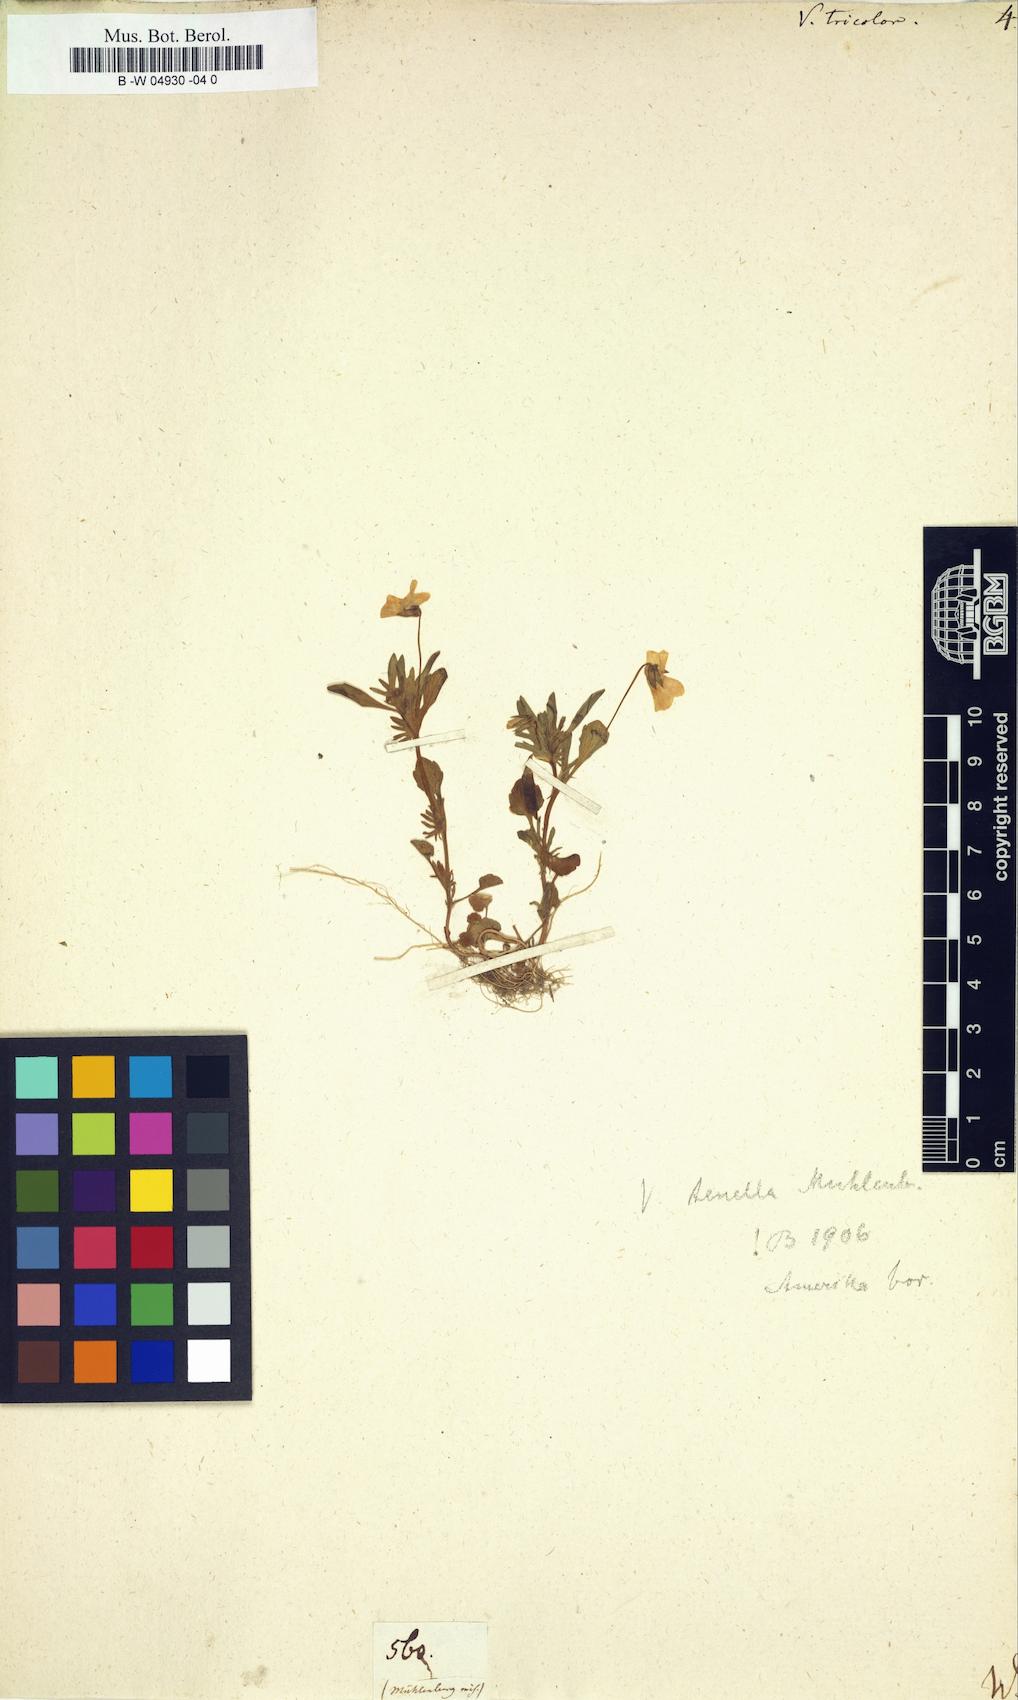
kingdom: Plantae
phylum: Tracheophyta
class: Magnoliopsida
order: Malpighiales
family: Violaceae
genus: Viola
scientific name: Viola tricolor
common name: Pansy
